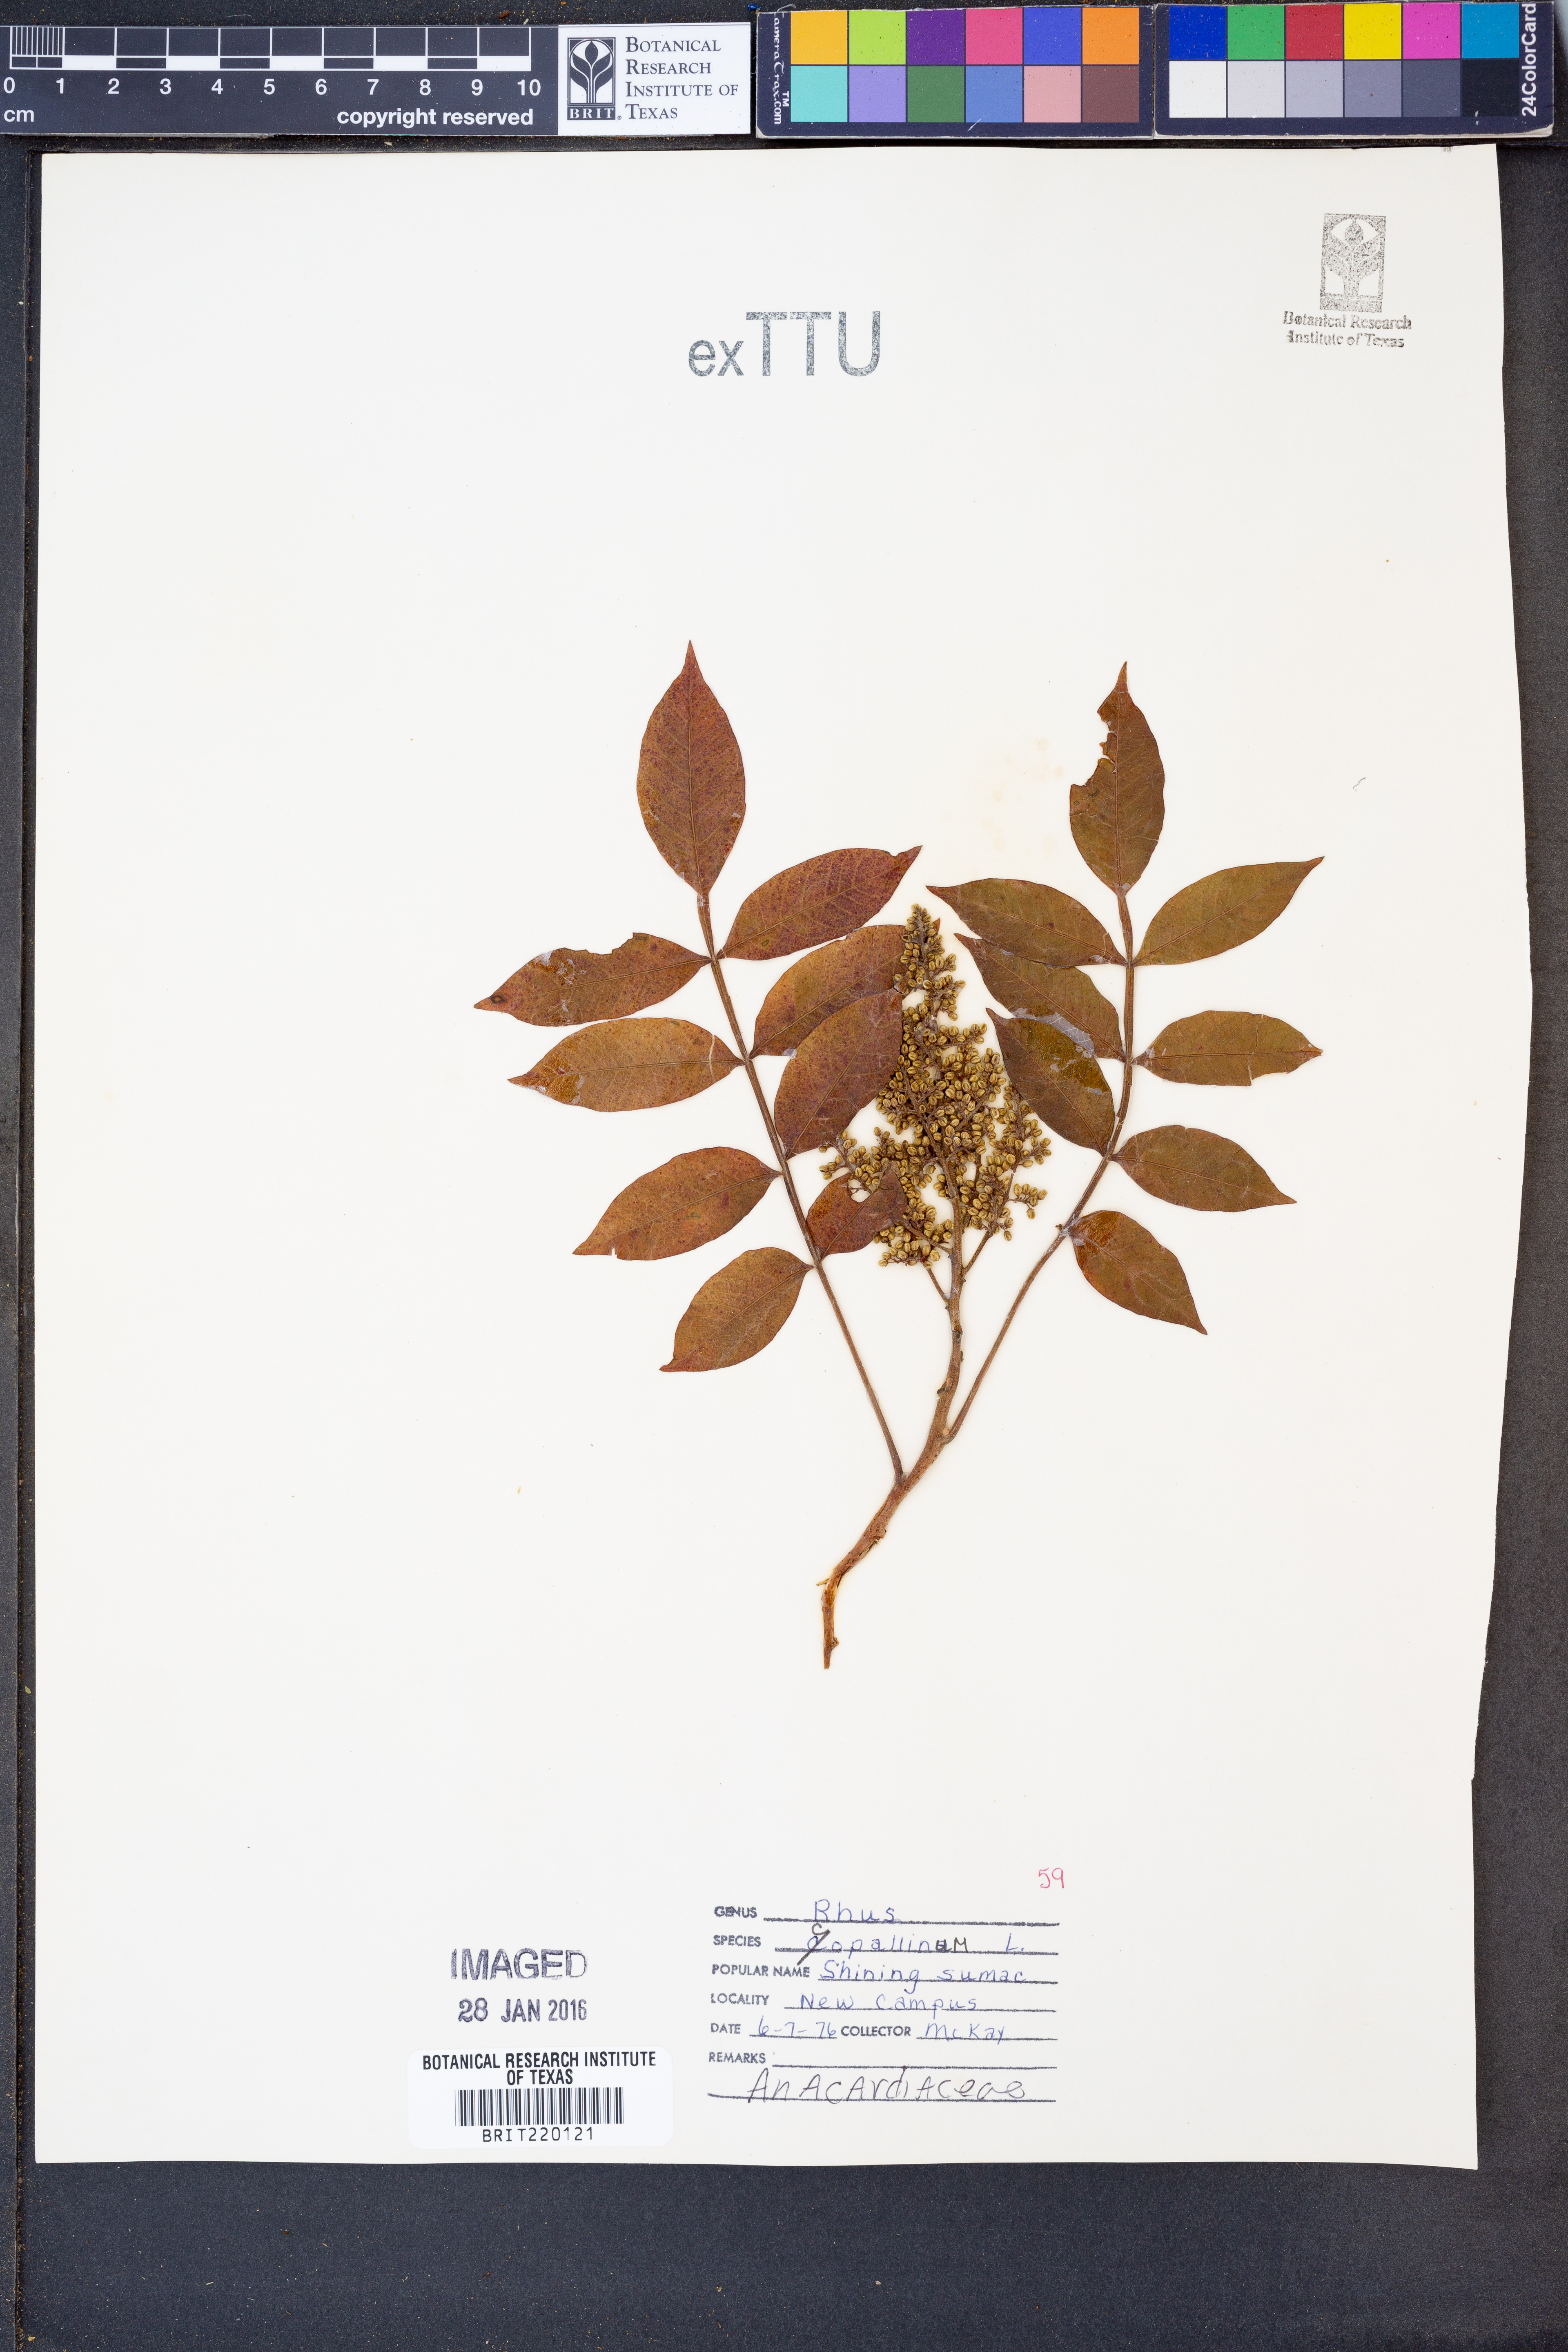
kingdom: Plantae
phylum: Tracheophyta
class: Magnoliopsida
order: Sapindales
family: Anacardiaceae
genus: Rhus
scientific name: Rhus copallina
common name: Shining sumac
